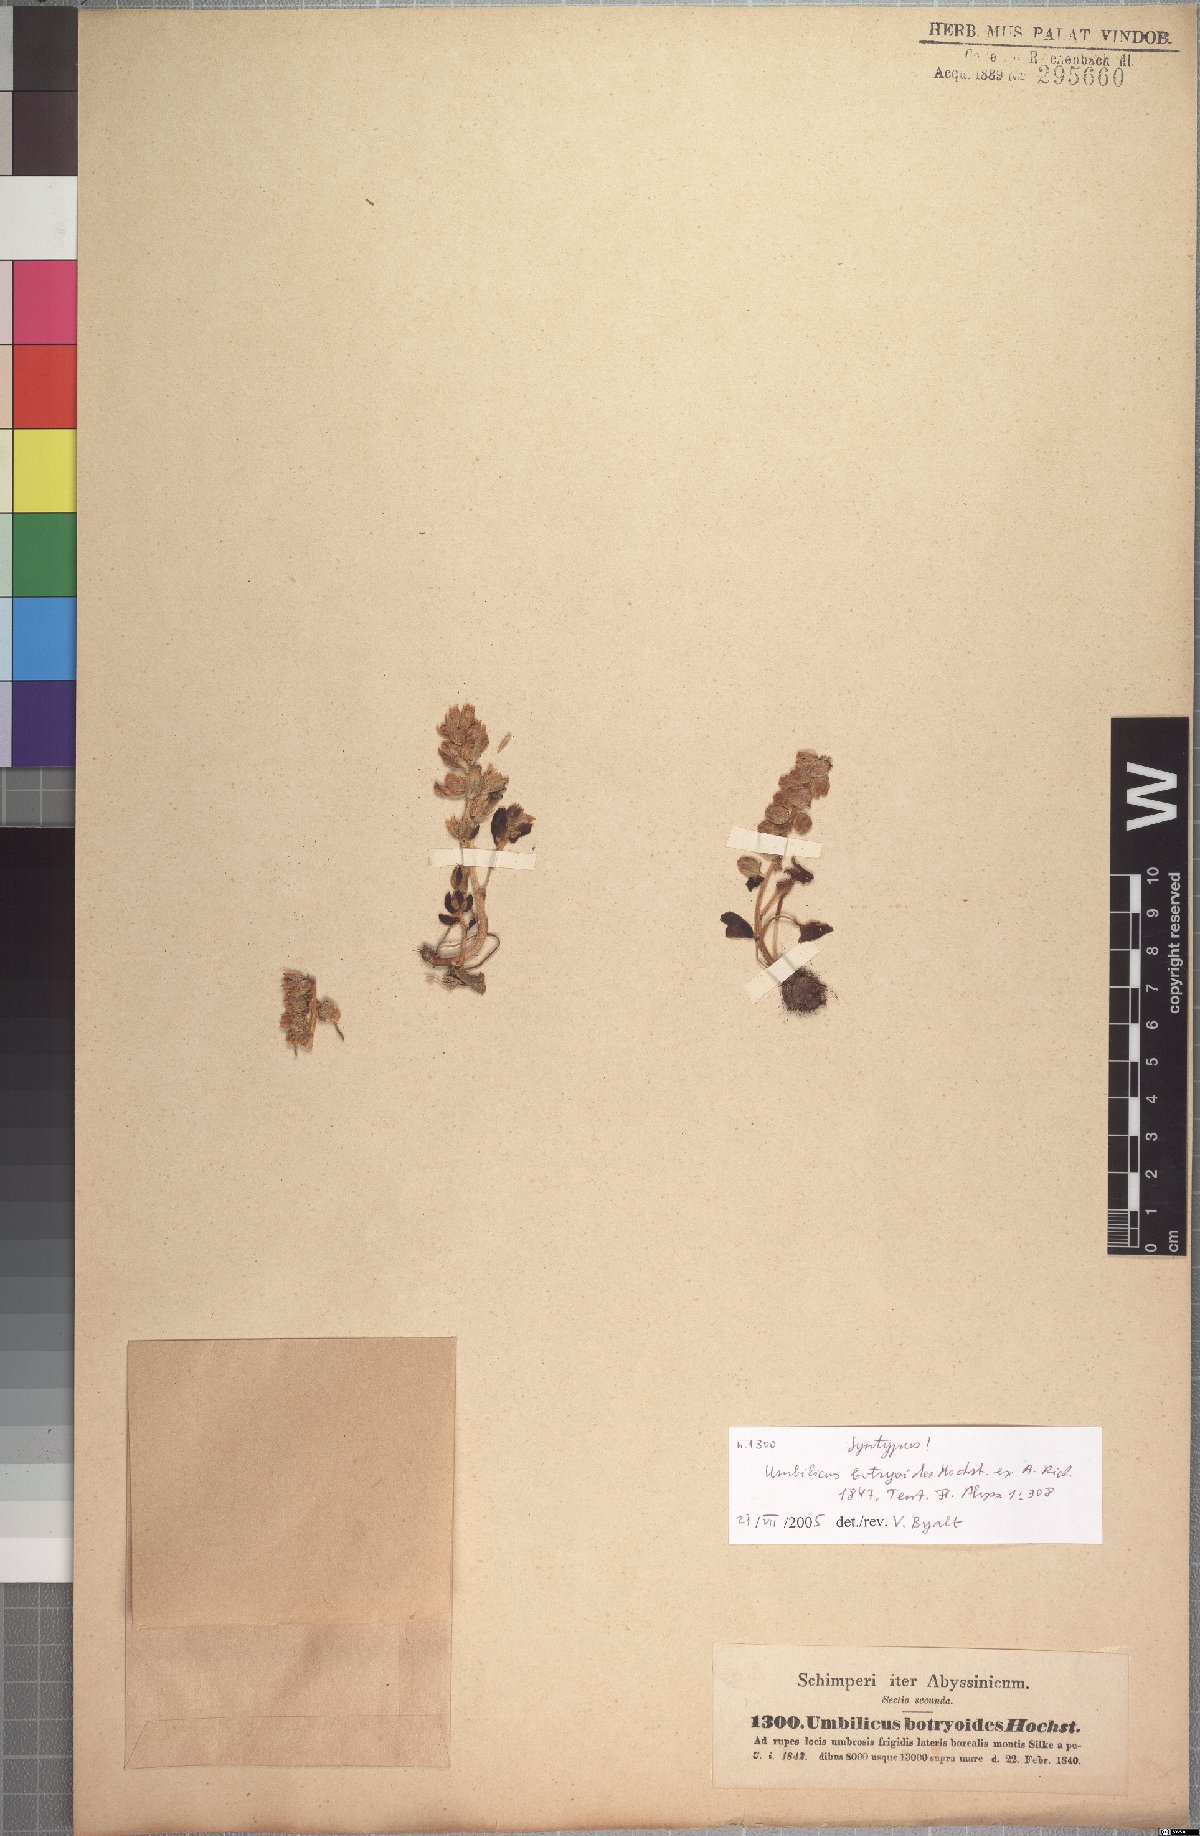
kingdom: Plantae
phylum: Tracheophyta
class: Magnoliopsida
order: Saxifragales
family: Crassulaceae
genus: Umbilicus
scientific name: Umbilicus botryoides
